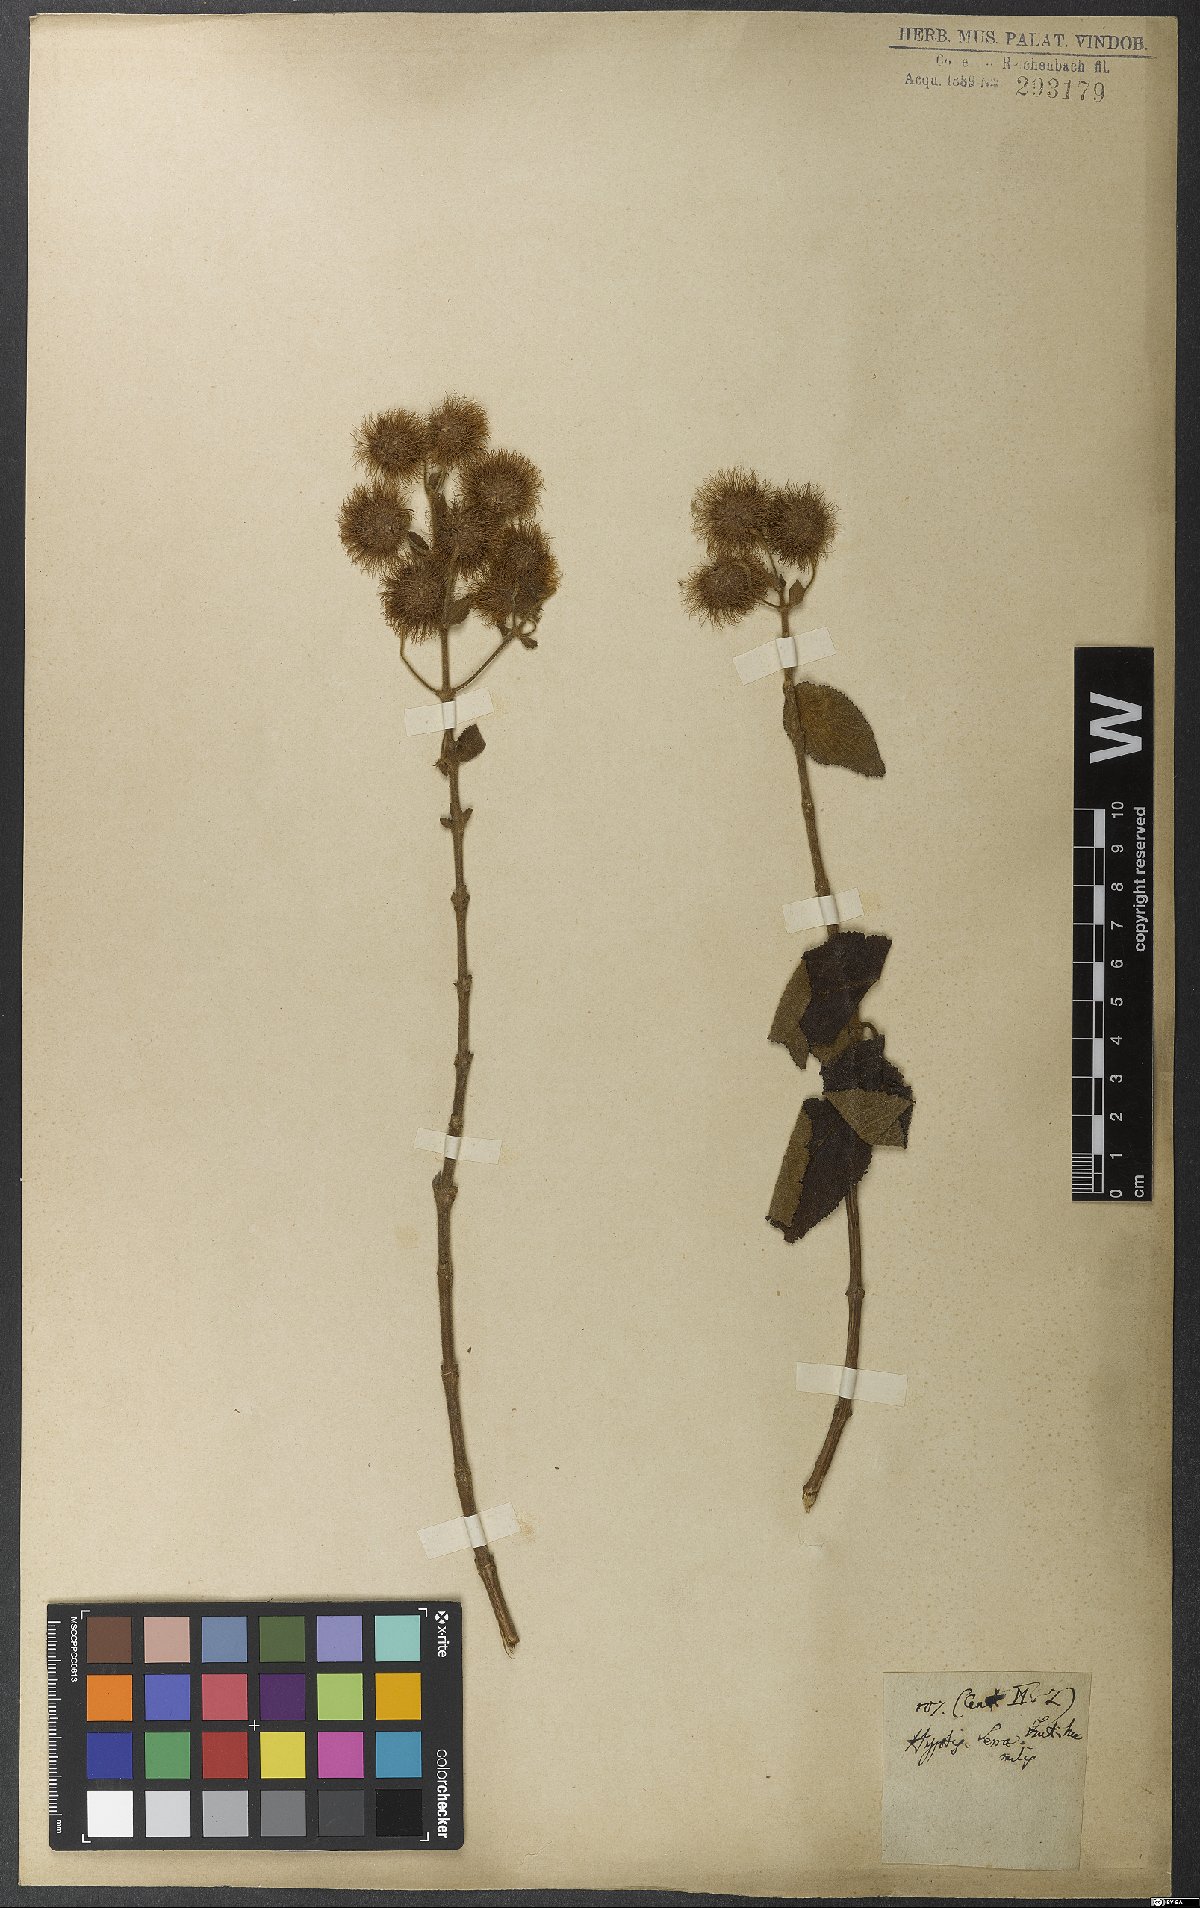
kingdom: Plantae
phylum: Tracheophyta
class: Magnoliopsida
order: Lamiales
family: Lamiaceae
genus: Medusantha
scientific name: Medusantha eriophylla
